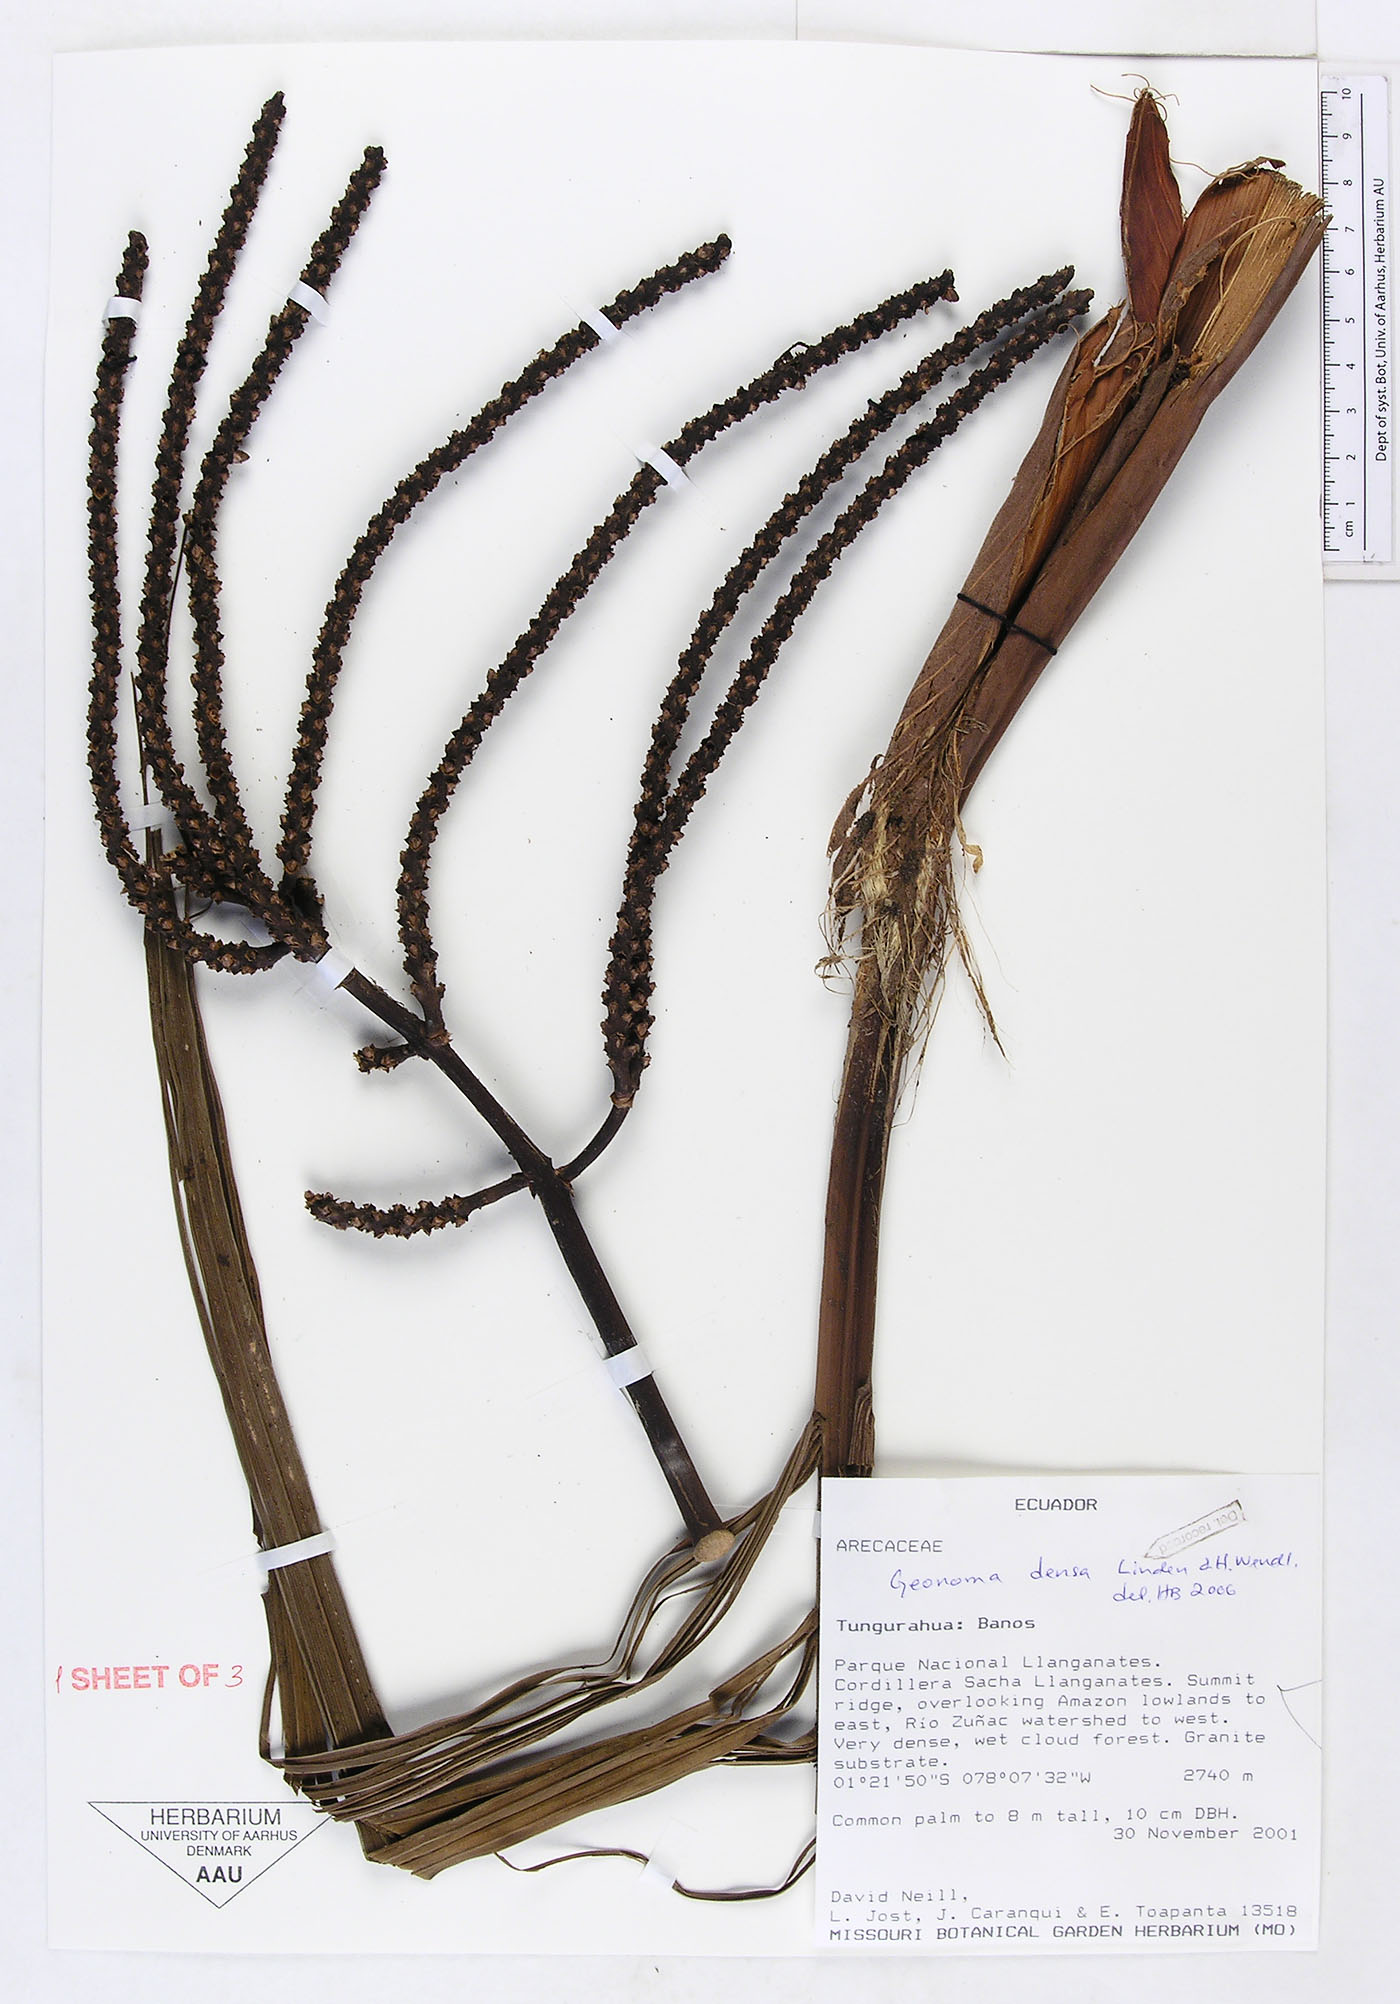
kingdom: Plantae
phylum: Tracheophyta
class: Liliopsida
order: Arecales
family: Arecaceae
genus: Geonoma
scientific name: Geonoma undata
